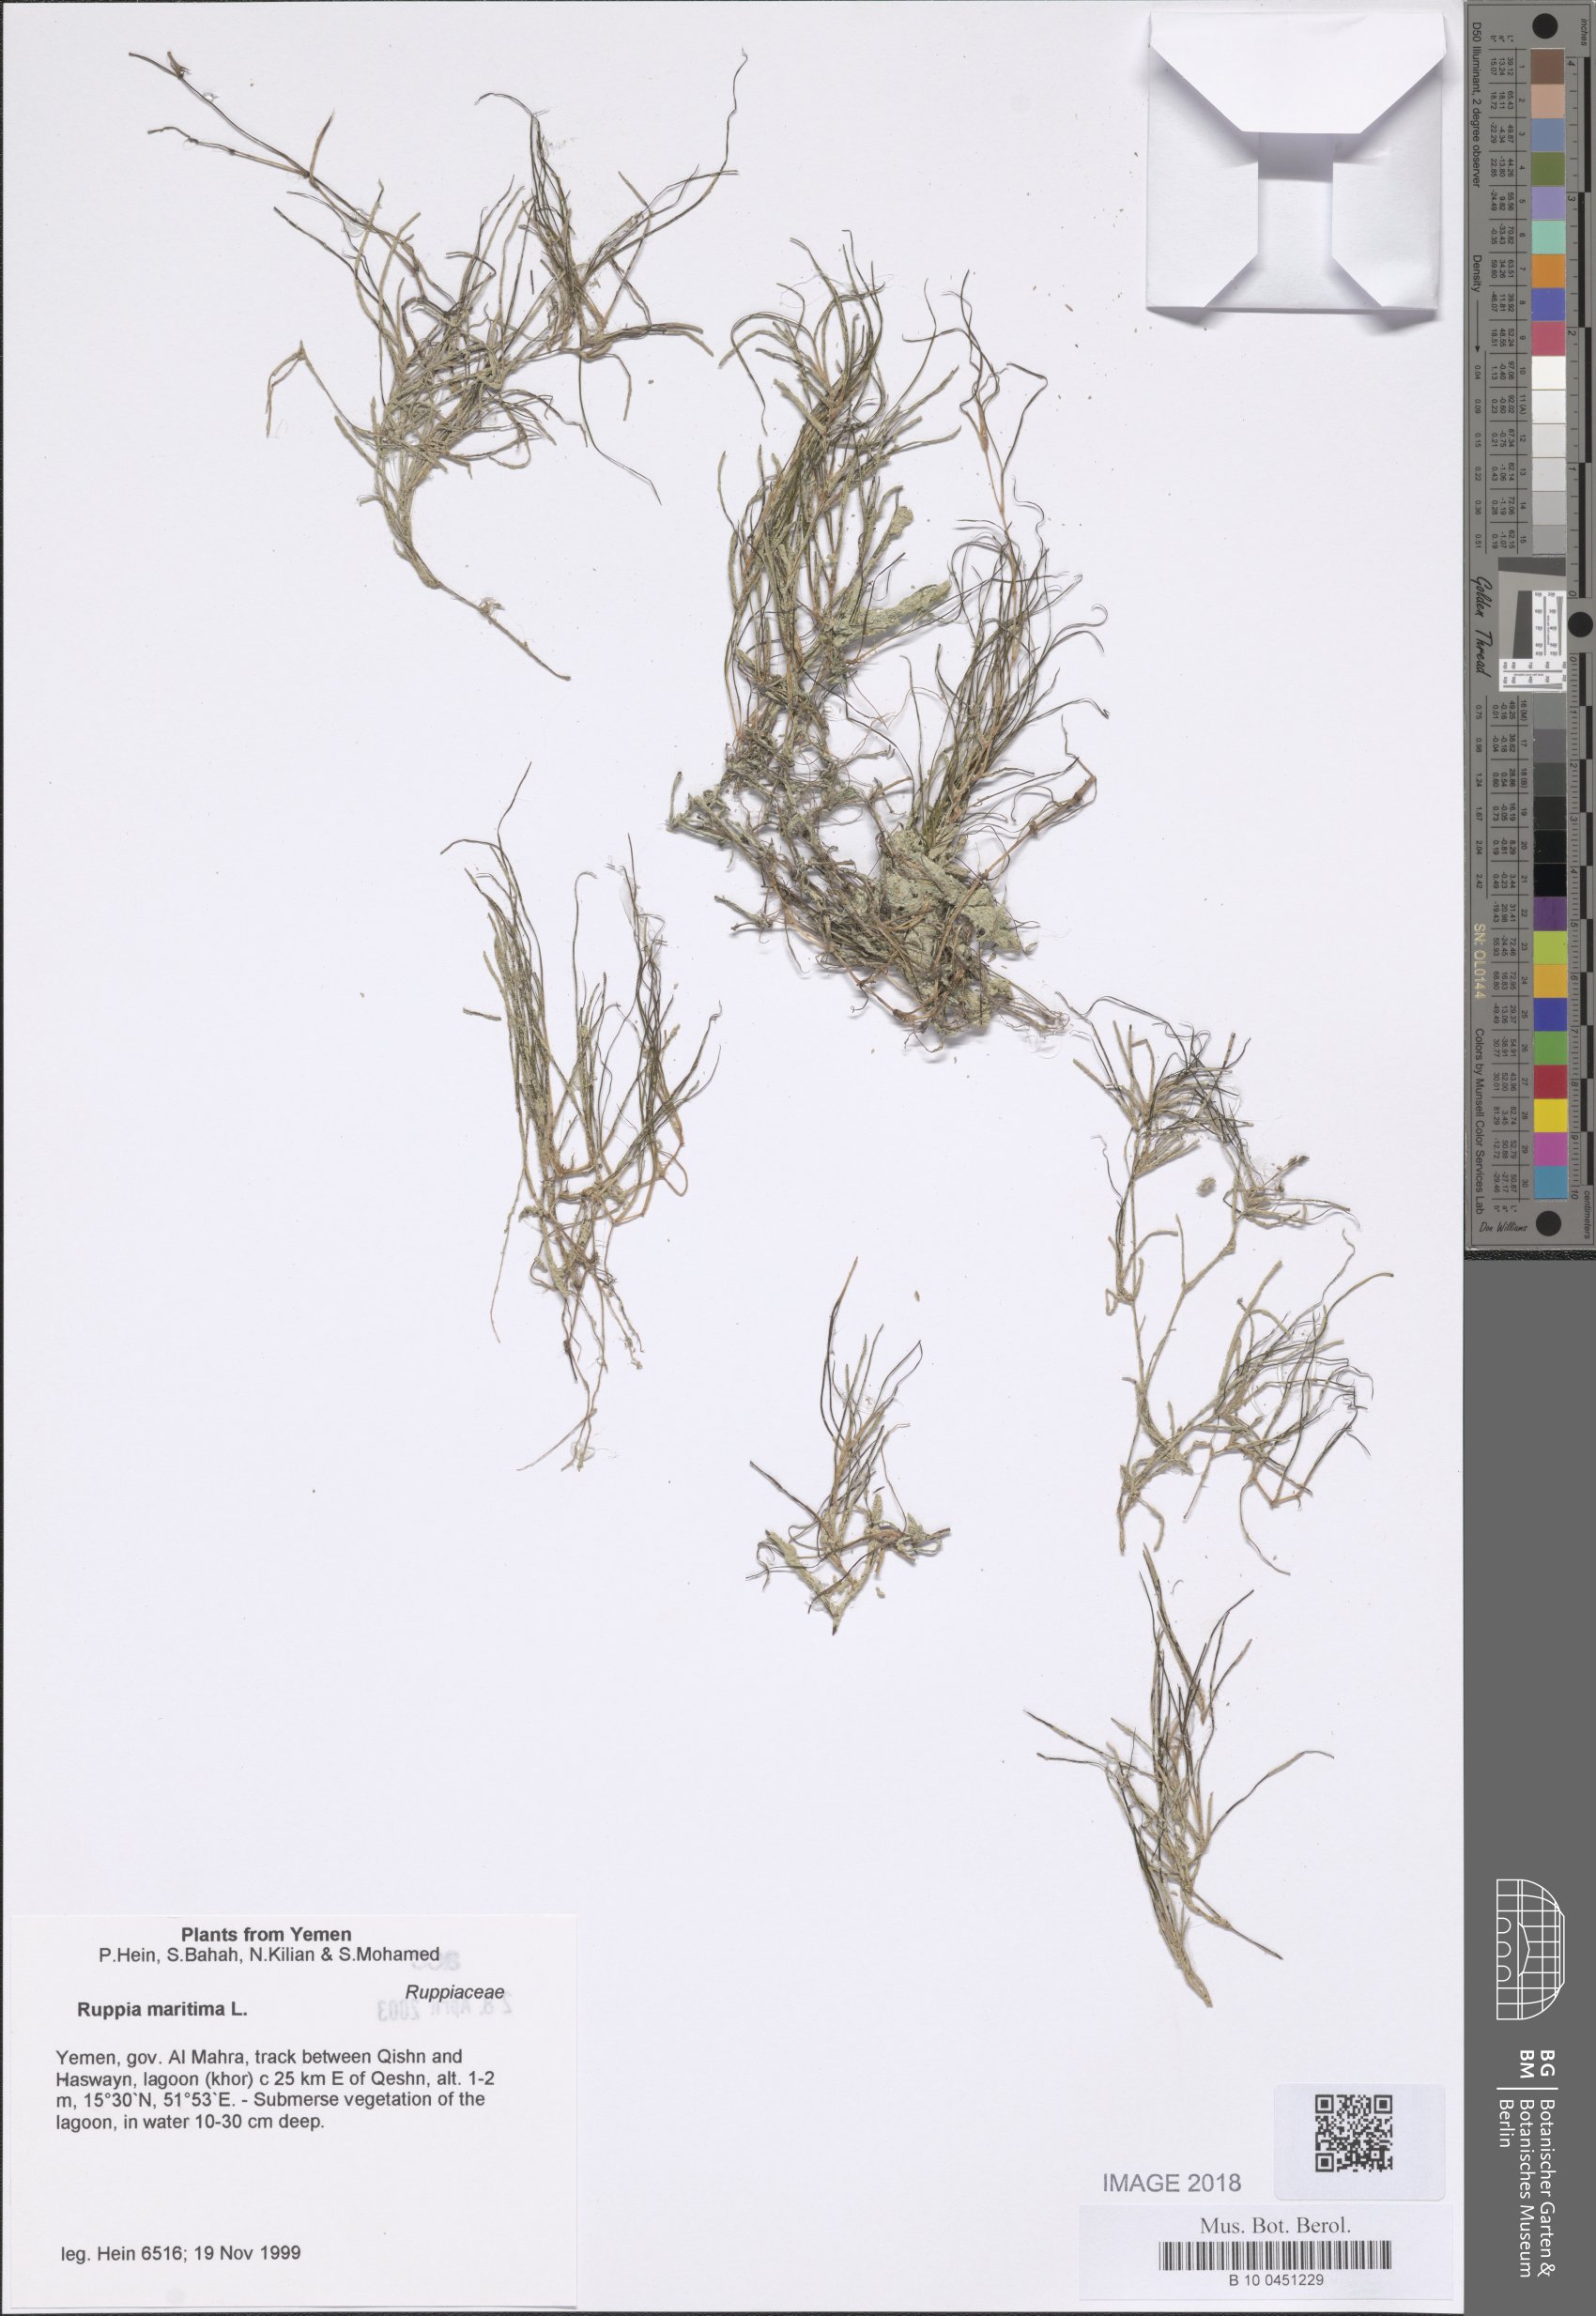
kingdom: Plantae
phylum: Tracheophyta
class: Liliopsida
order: Alismatales
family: Ruppiaceae
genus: Ruppia
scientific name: Ruppia maritima
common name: Beaked tasselweed
